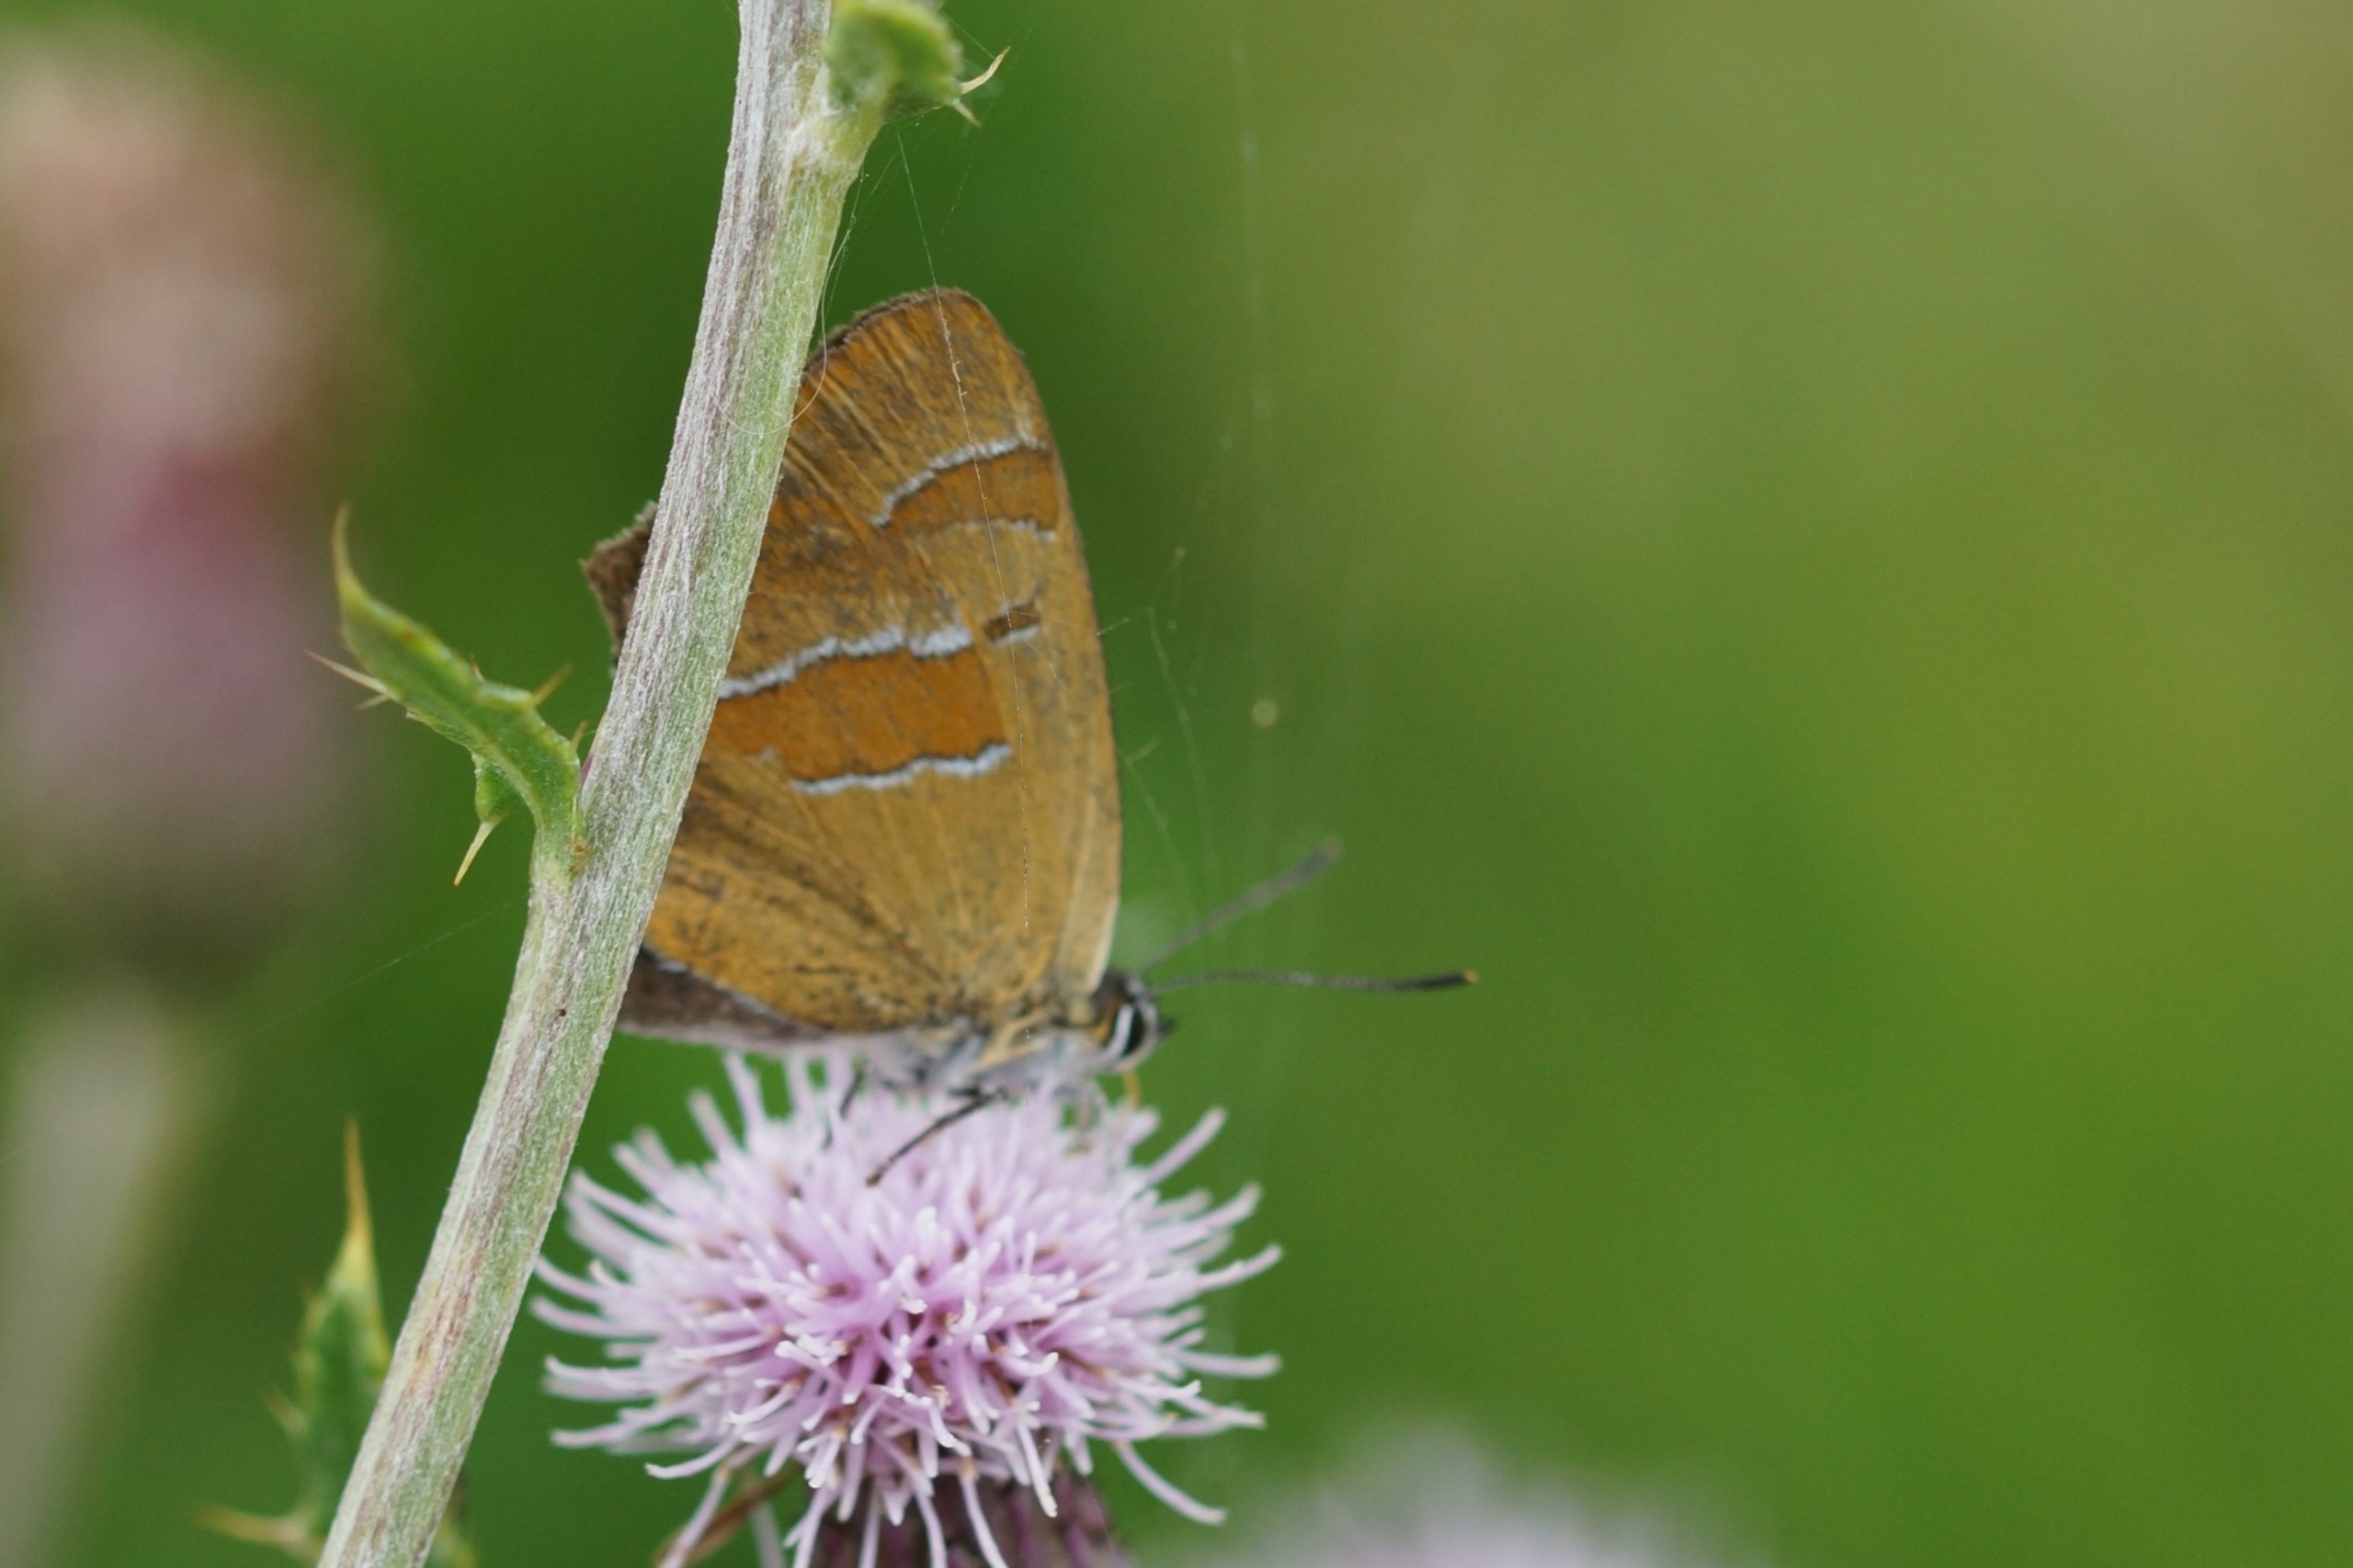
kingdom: Animalia
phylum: Arthropoda
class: Insecta
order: Lepidoptera
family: Lycaenidae
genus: Thecla
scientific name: Thecla betulae
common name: Guldhale
